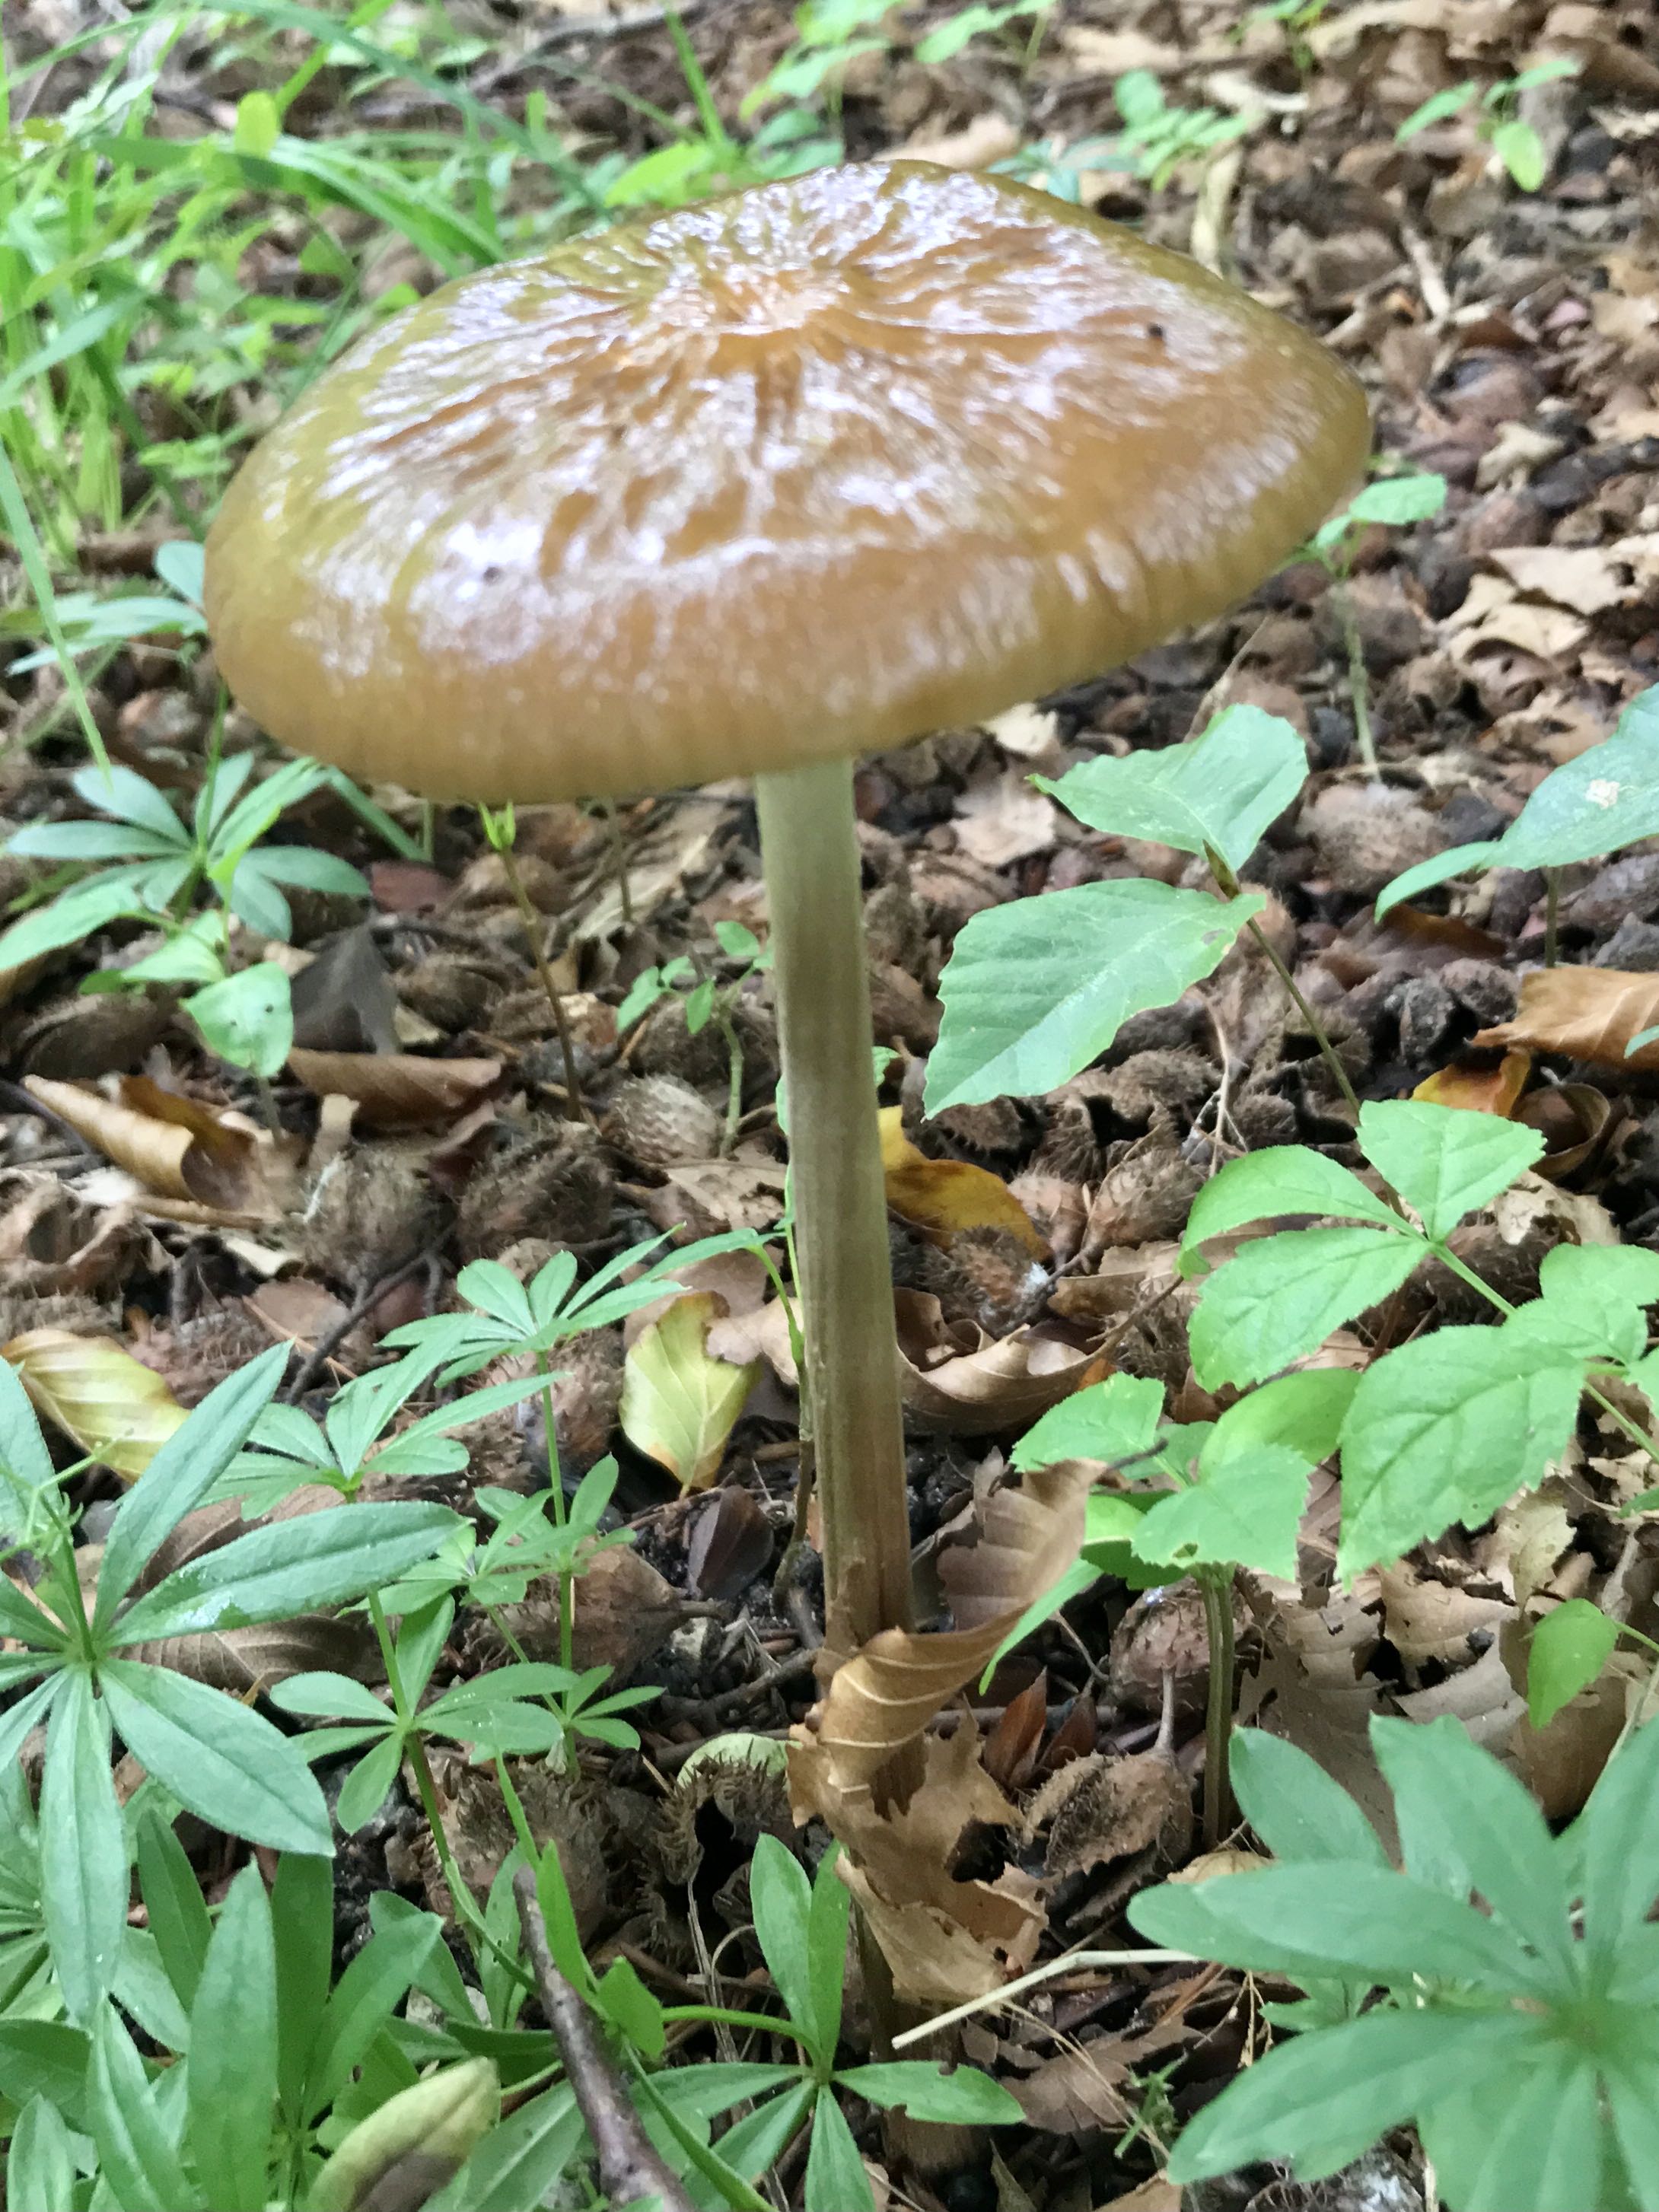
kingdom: Fungi
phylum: Basidiomycota
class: Agaricomycetes
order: Agaricales
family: Physalacriaceae
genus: Hymenopellis
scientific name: Hymenopellis radicata
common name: almindelig pælerodshat
